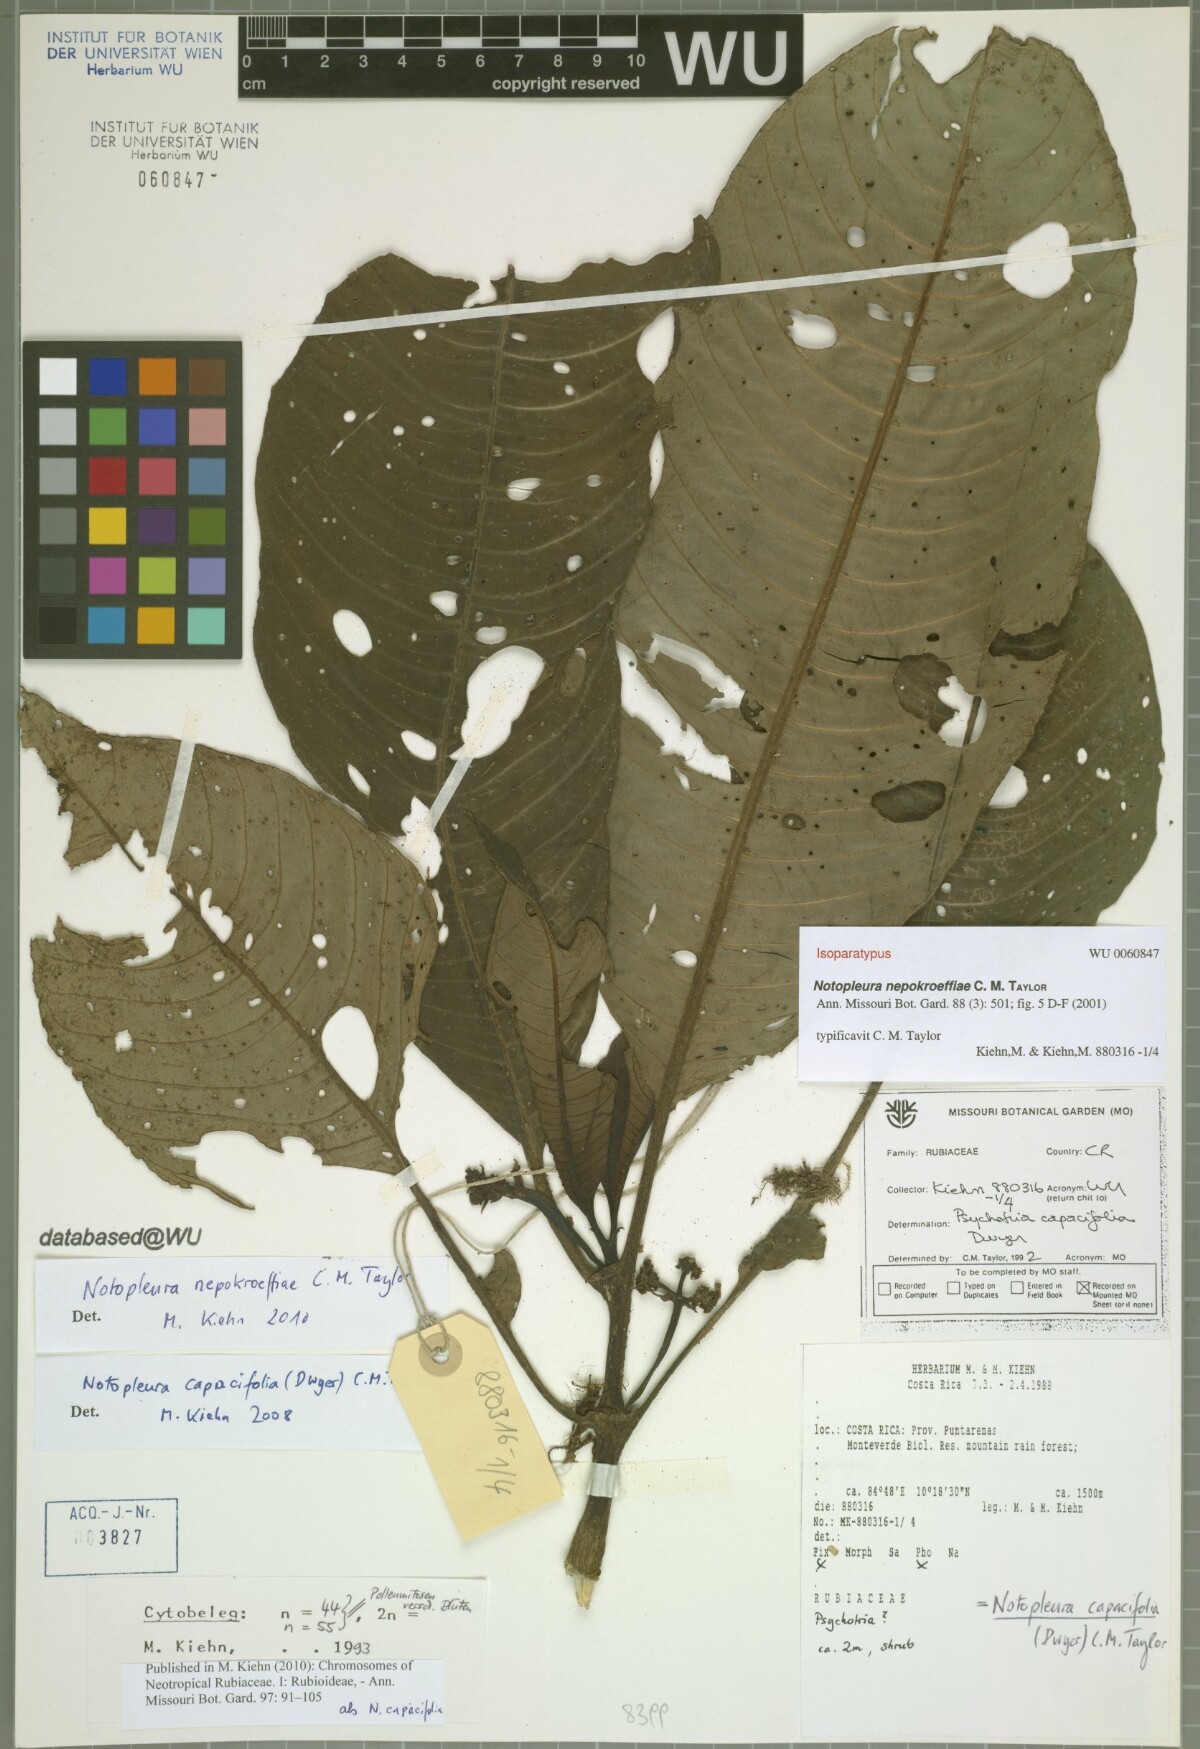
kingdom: Plantae
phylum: Tracheophyta
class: Magnoliopsida
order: Gentianales
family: Rubiaceae
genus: Notopleura
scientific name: Notopleura nepokroeffiae
